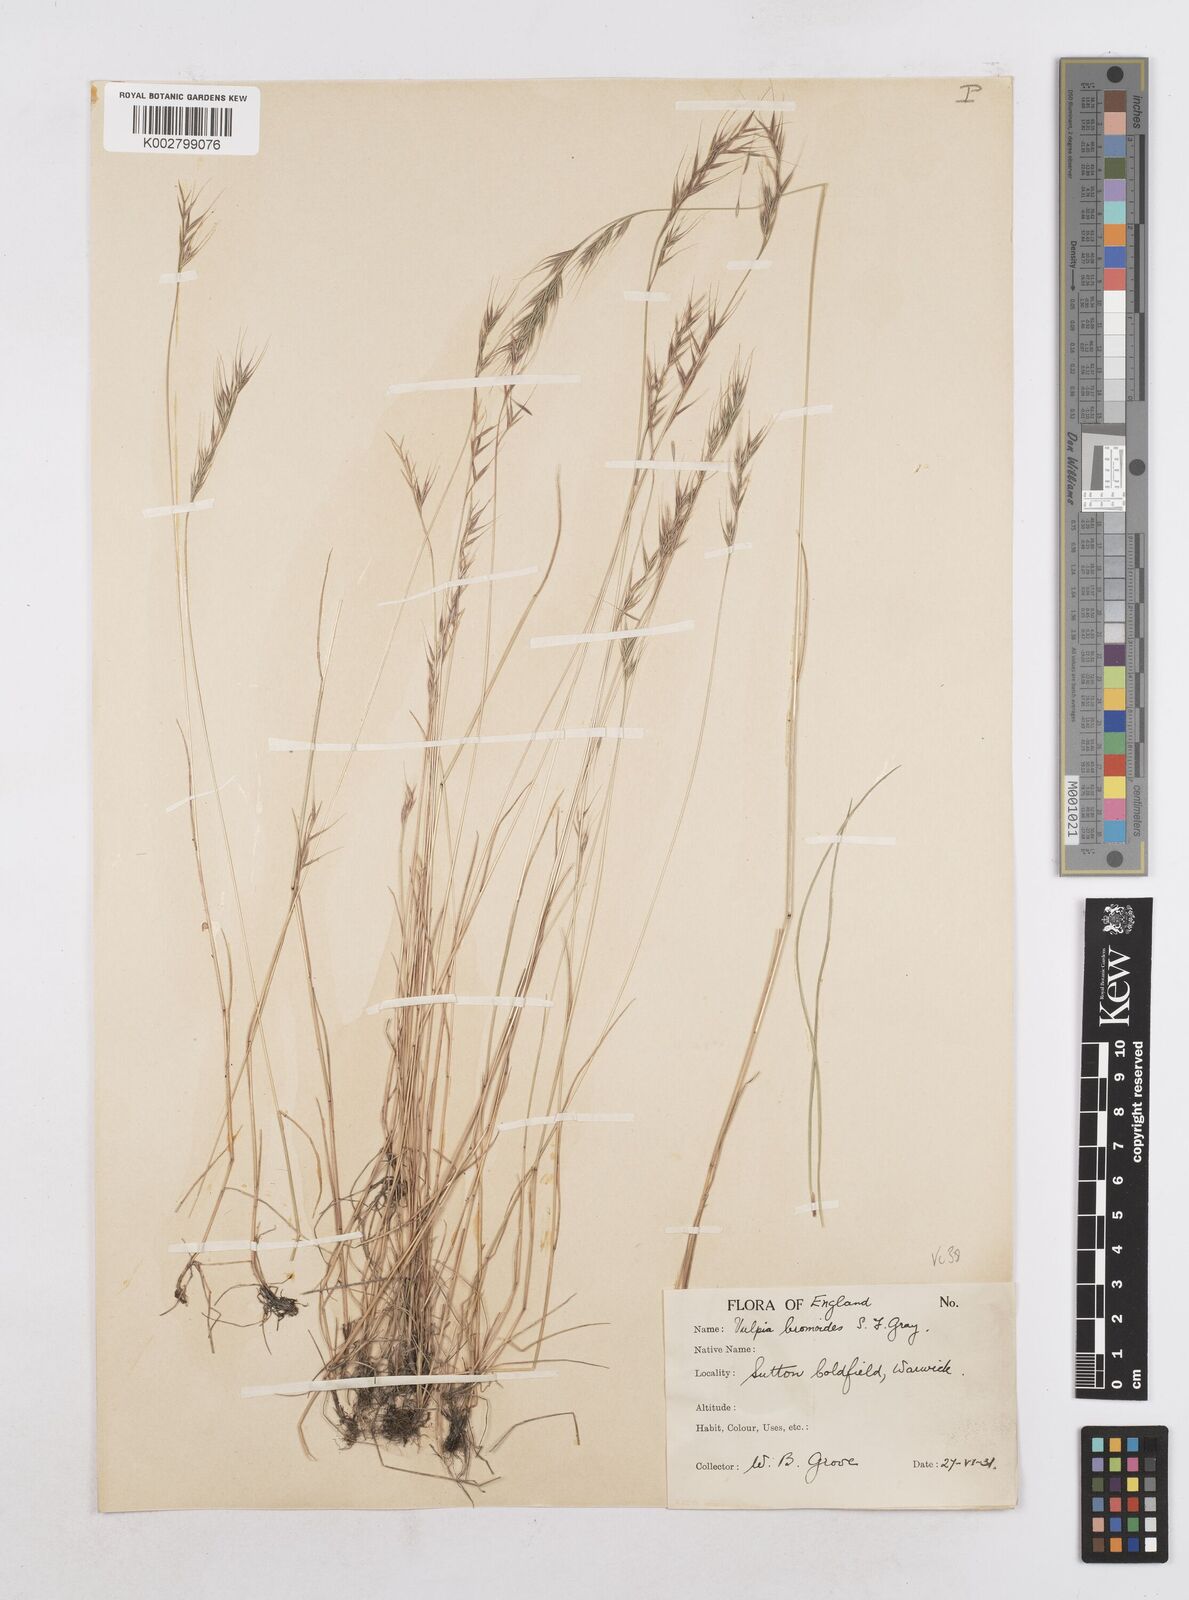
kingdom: Plantae
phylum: Tracheophyta
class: Liliopsida
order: Poales
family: Poaceae
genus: Festuca
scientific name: Festuca bromoides
